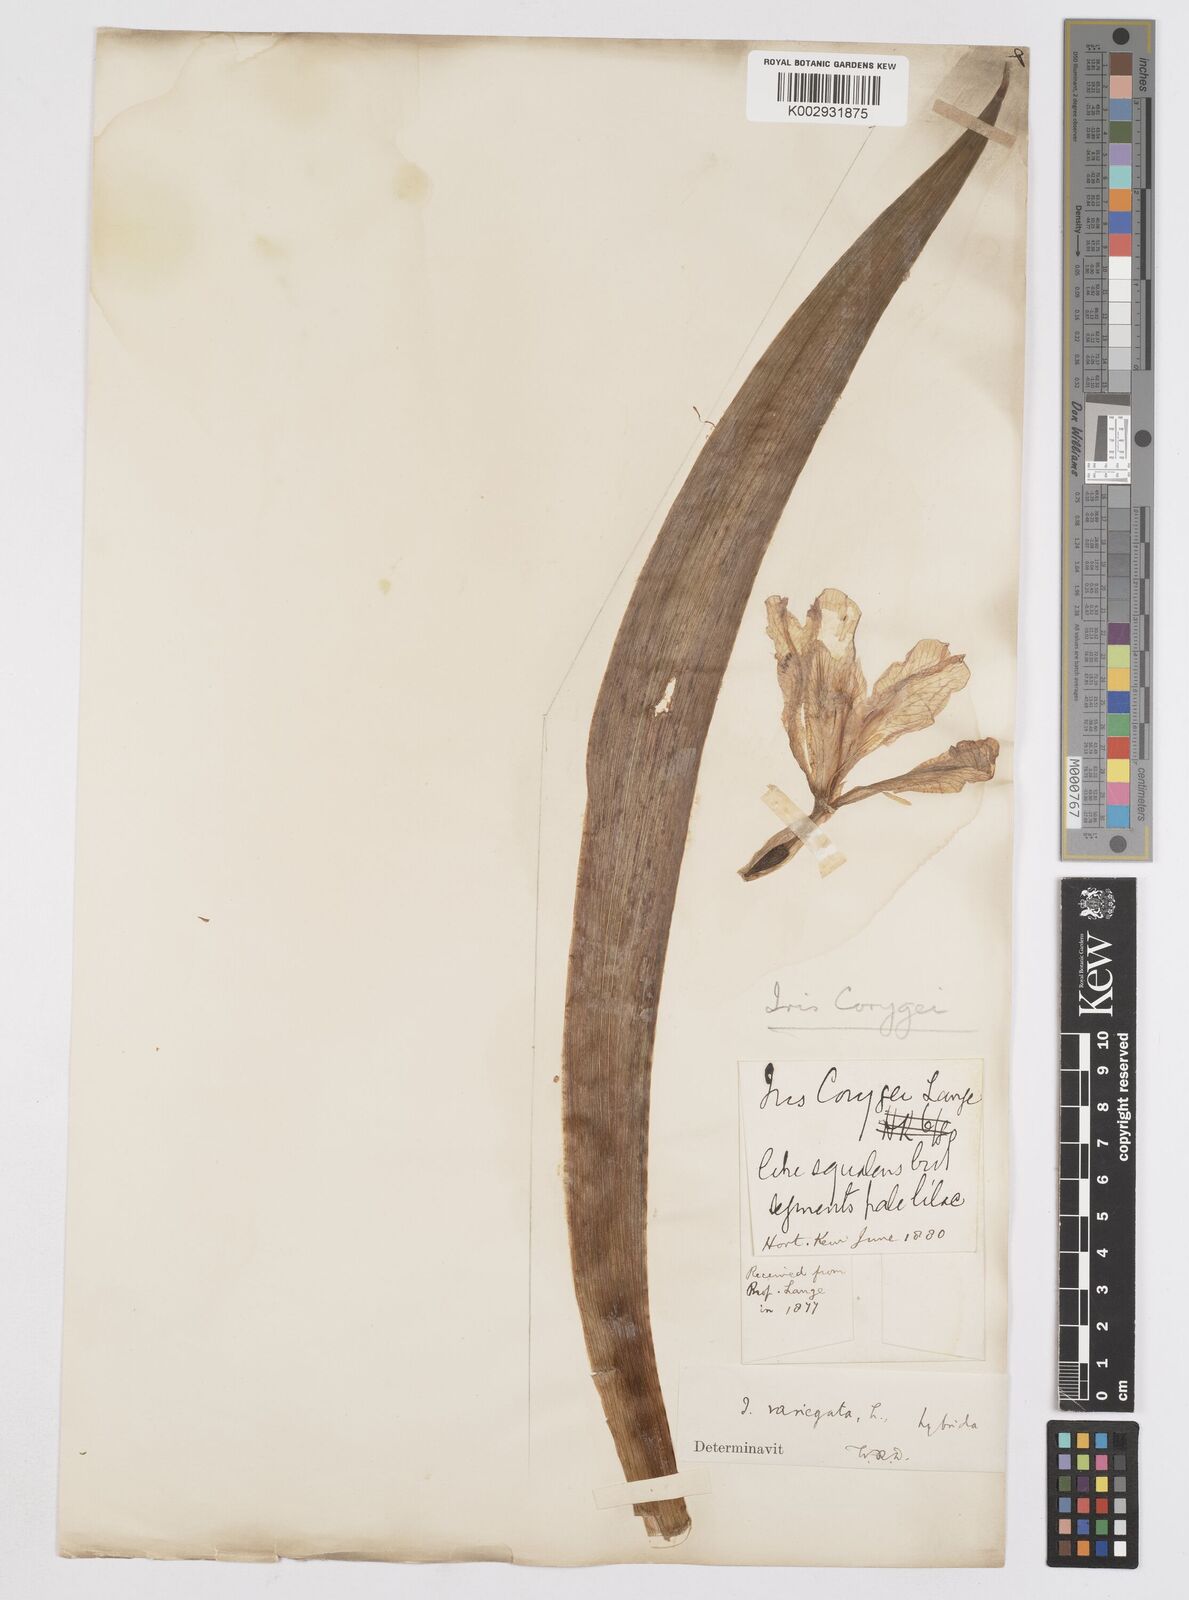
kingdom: Plantae
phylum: Tracheophyta
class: Liliopsida
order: Asparagales
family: Iridaceae
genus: Iris
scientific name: Iris corygei
